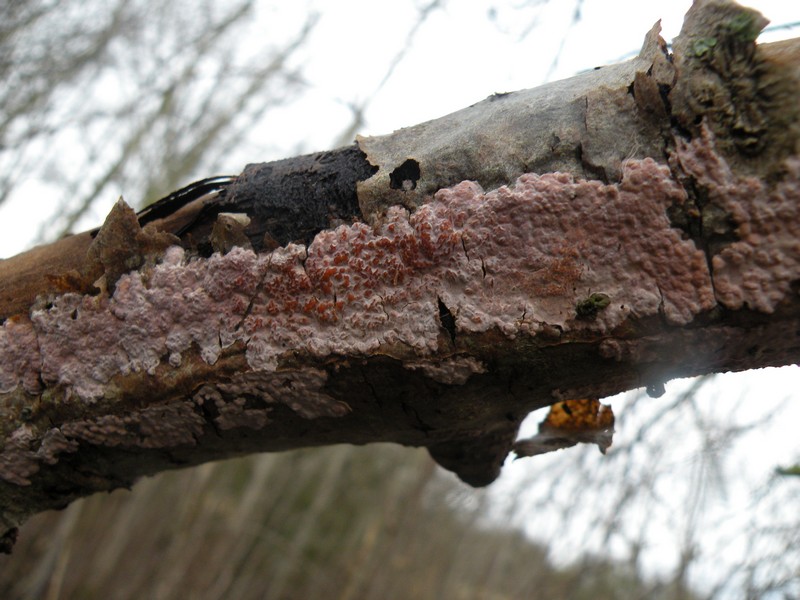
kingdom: Fungi
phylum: Basidiomycota
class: Agaricomycetes
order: Russulales
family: Peniophoraceae
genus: Peniophora
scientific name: Peniophora polygonia
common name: polygon-voksskind
